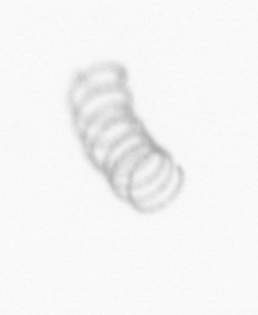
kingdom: Chromista
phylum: Ochrophyta
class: Bacillariophyceae
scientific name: Bacillariophyceae
